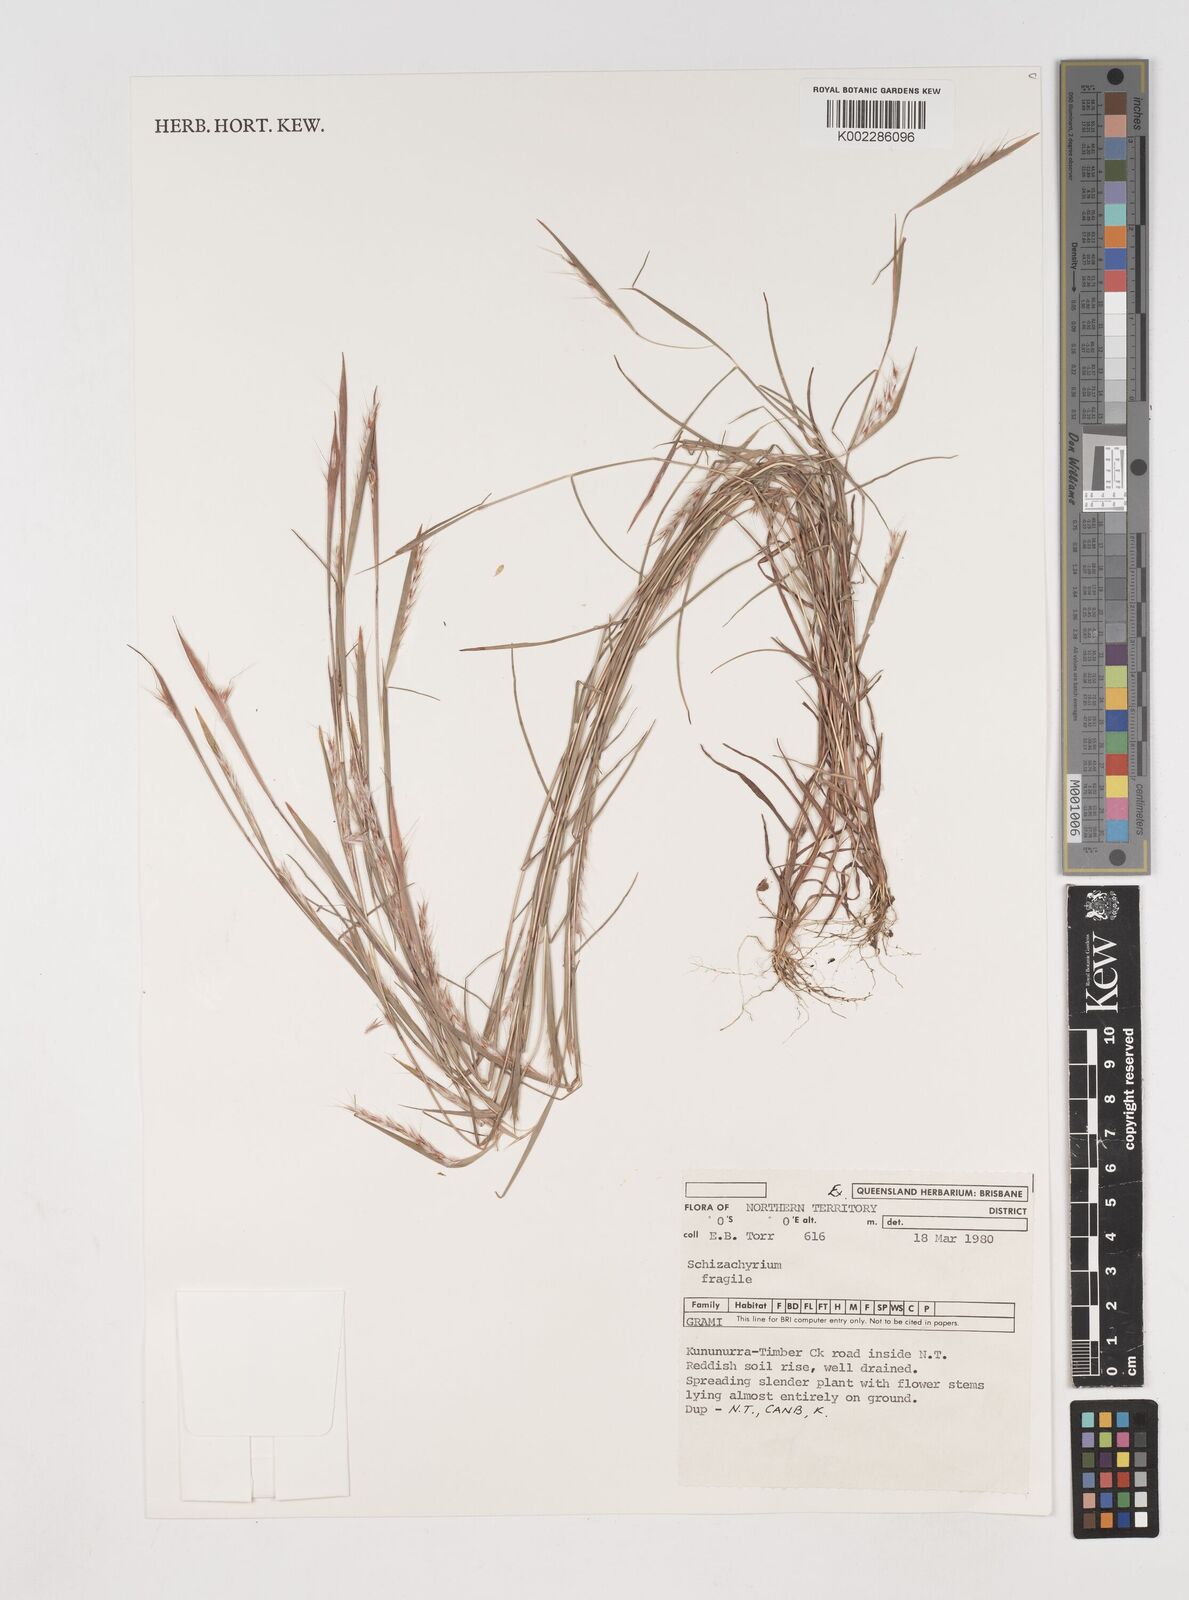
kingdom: Plantae
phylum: Tracheophyta
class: Liliopsida
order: Poales
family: Poaceae
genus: Schizachyrium
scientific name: Schizachyrium fragile
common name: Red spathe grass
